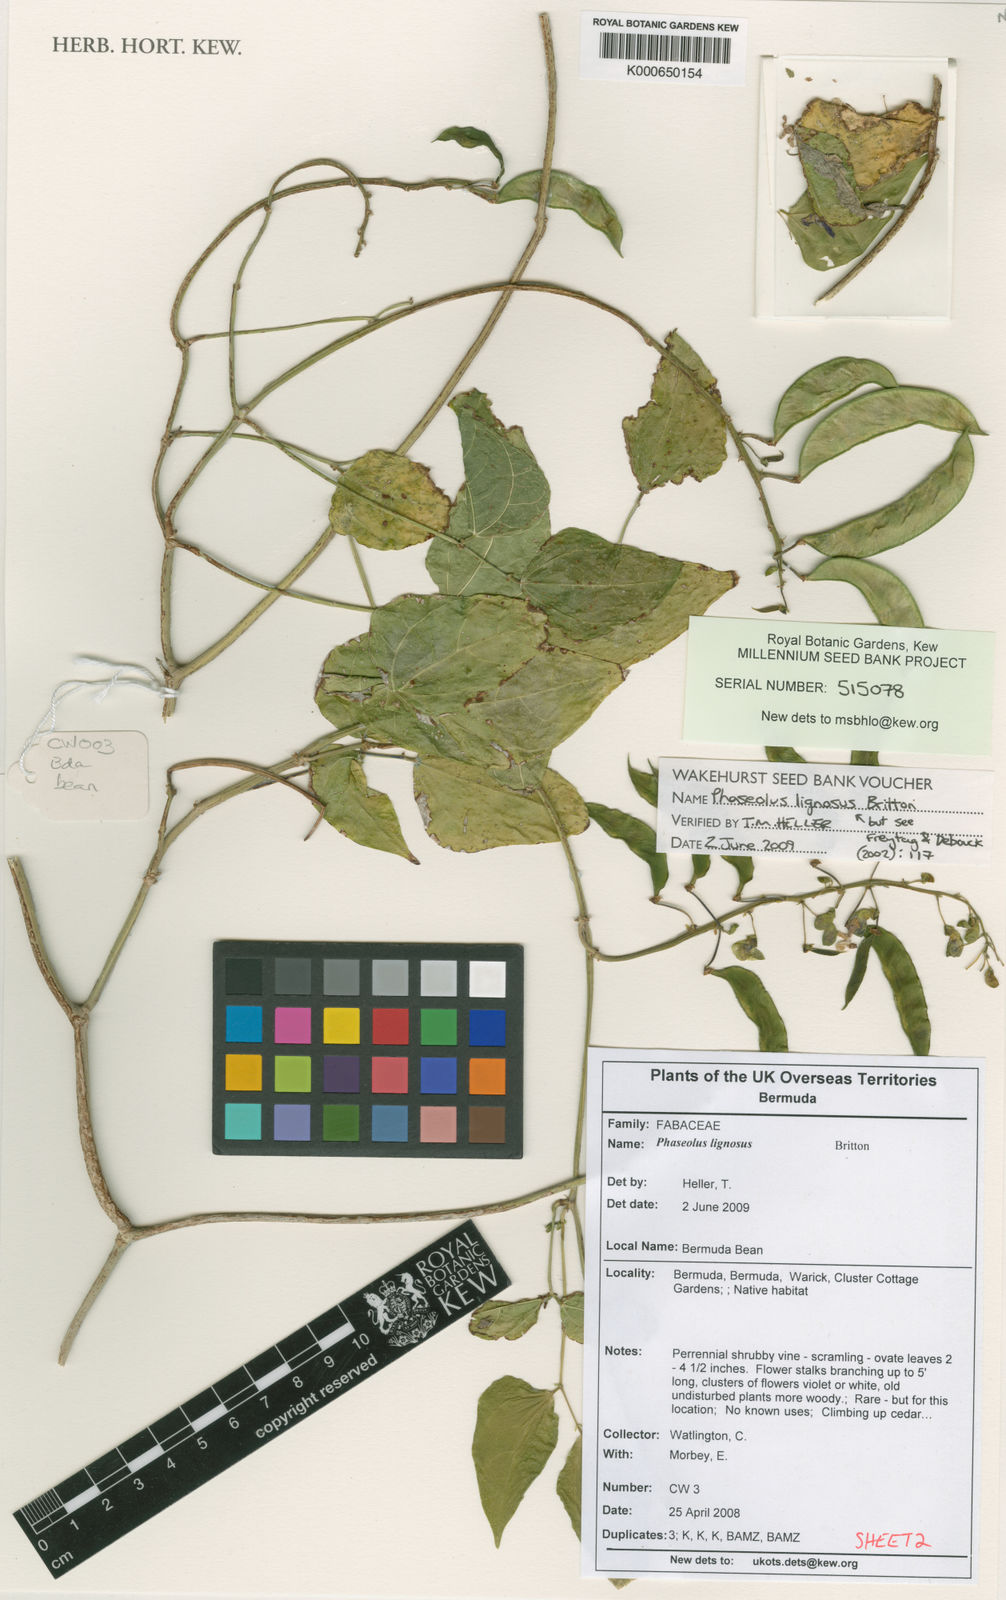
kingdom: Plantae
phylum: Tracheophyta
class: Magnoliopsida
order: Fabales
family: Fabaceae
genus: Phaseolus
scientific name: Phaseolus lignosus
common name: Bermuda bean
